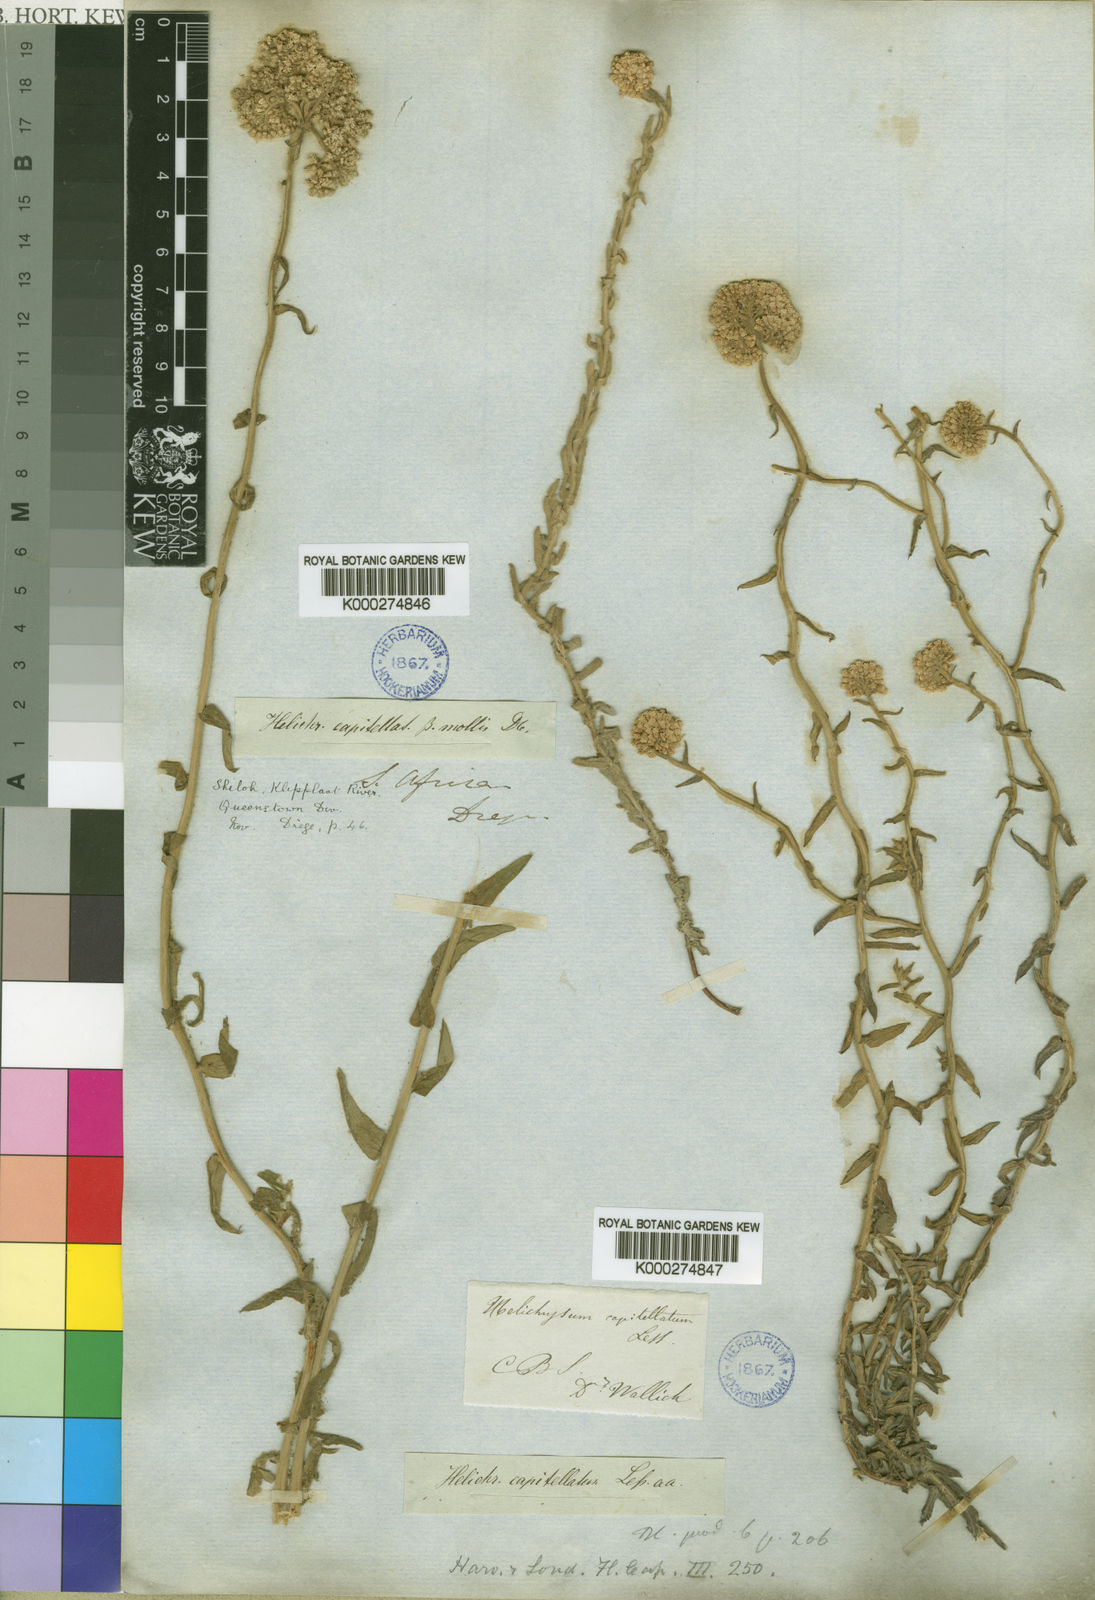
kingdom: Plantae
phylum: Tracheophyta
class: Magnoliopsida
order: Asterales
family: Asteraceae
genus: Helichrysum
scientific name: Helichrysum helianthemifolium
